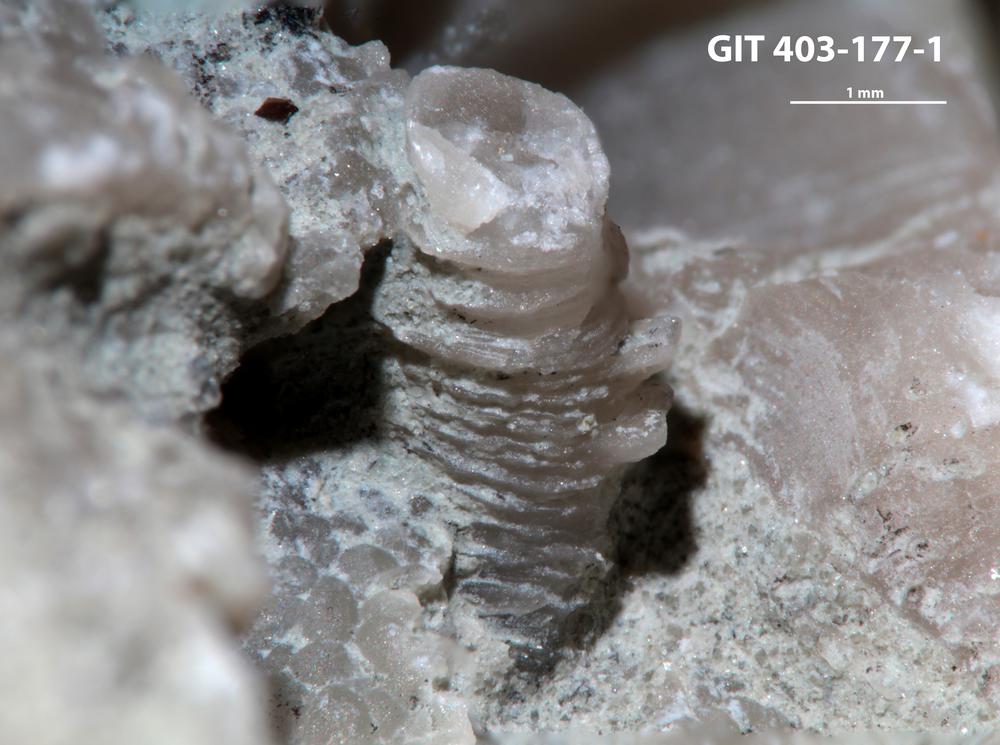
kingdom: Animalia
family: Cornulitidae
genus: Conchicolites
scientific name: Conchicolites
